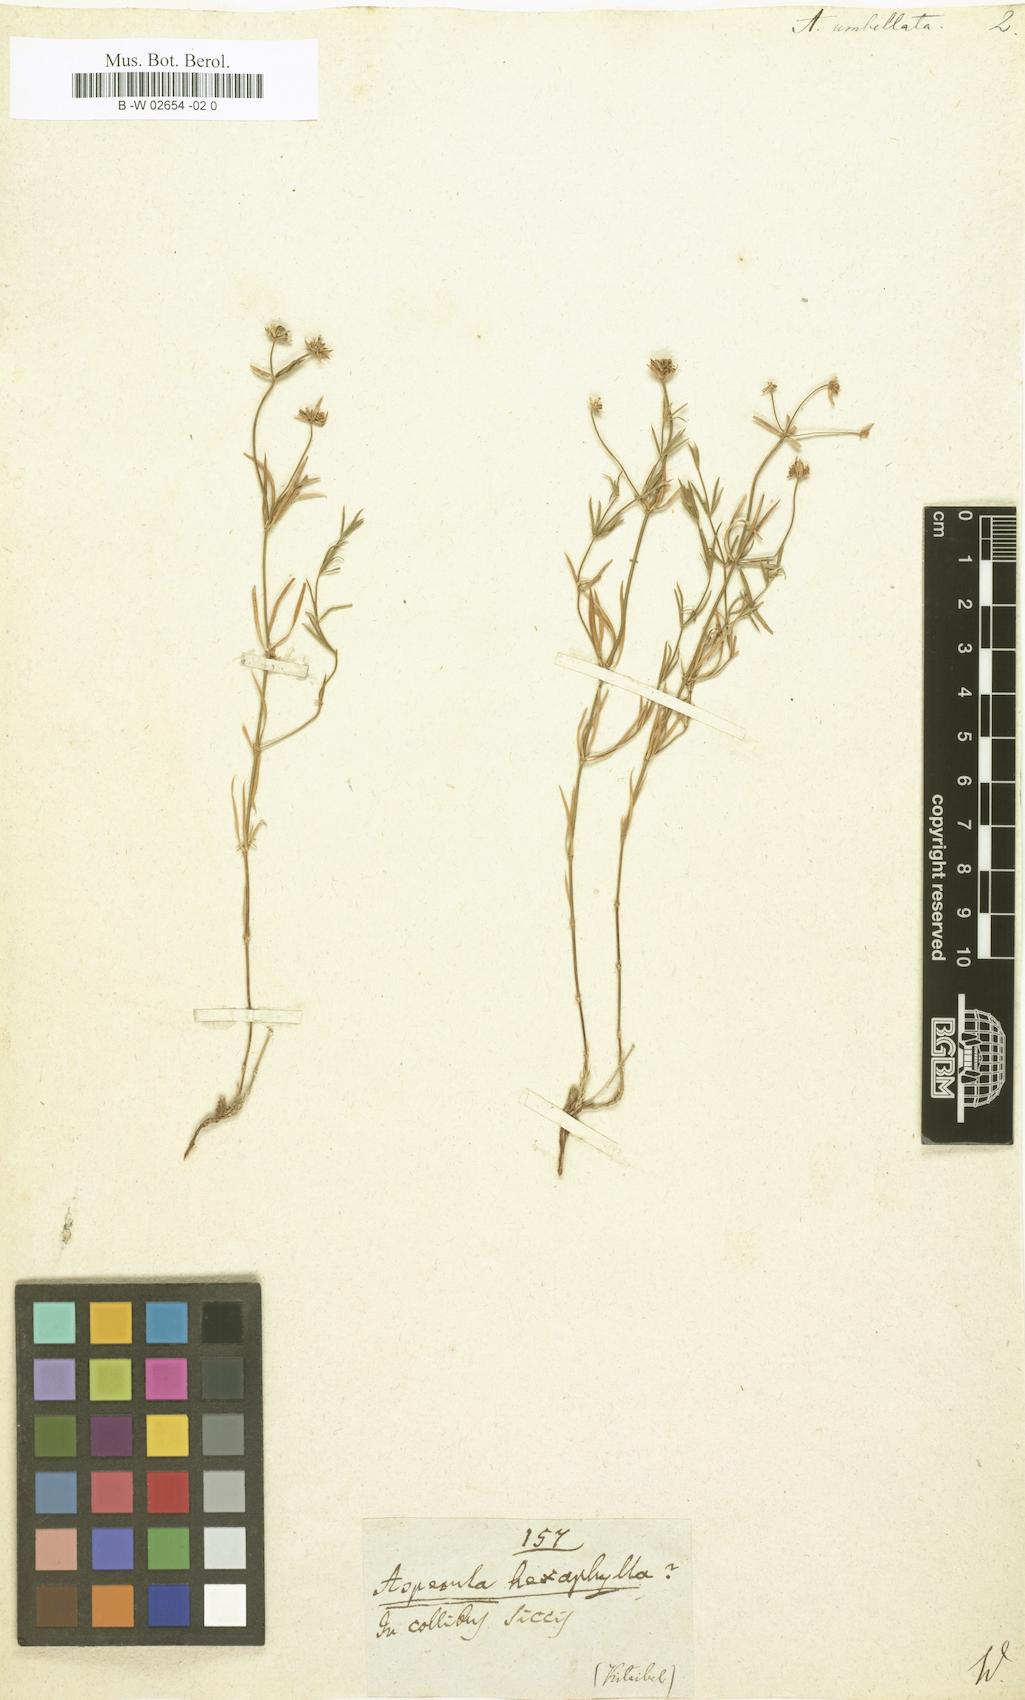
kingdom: Plantae
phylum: Tracheophyta
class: Magnoliopsida
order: Gentianales
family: Rubiaceae
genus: Hexaphylla
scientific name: Hexaphylla capitata
